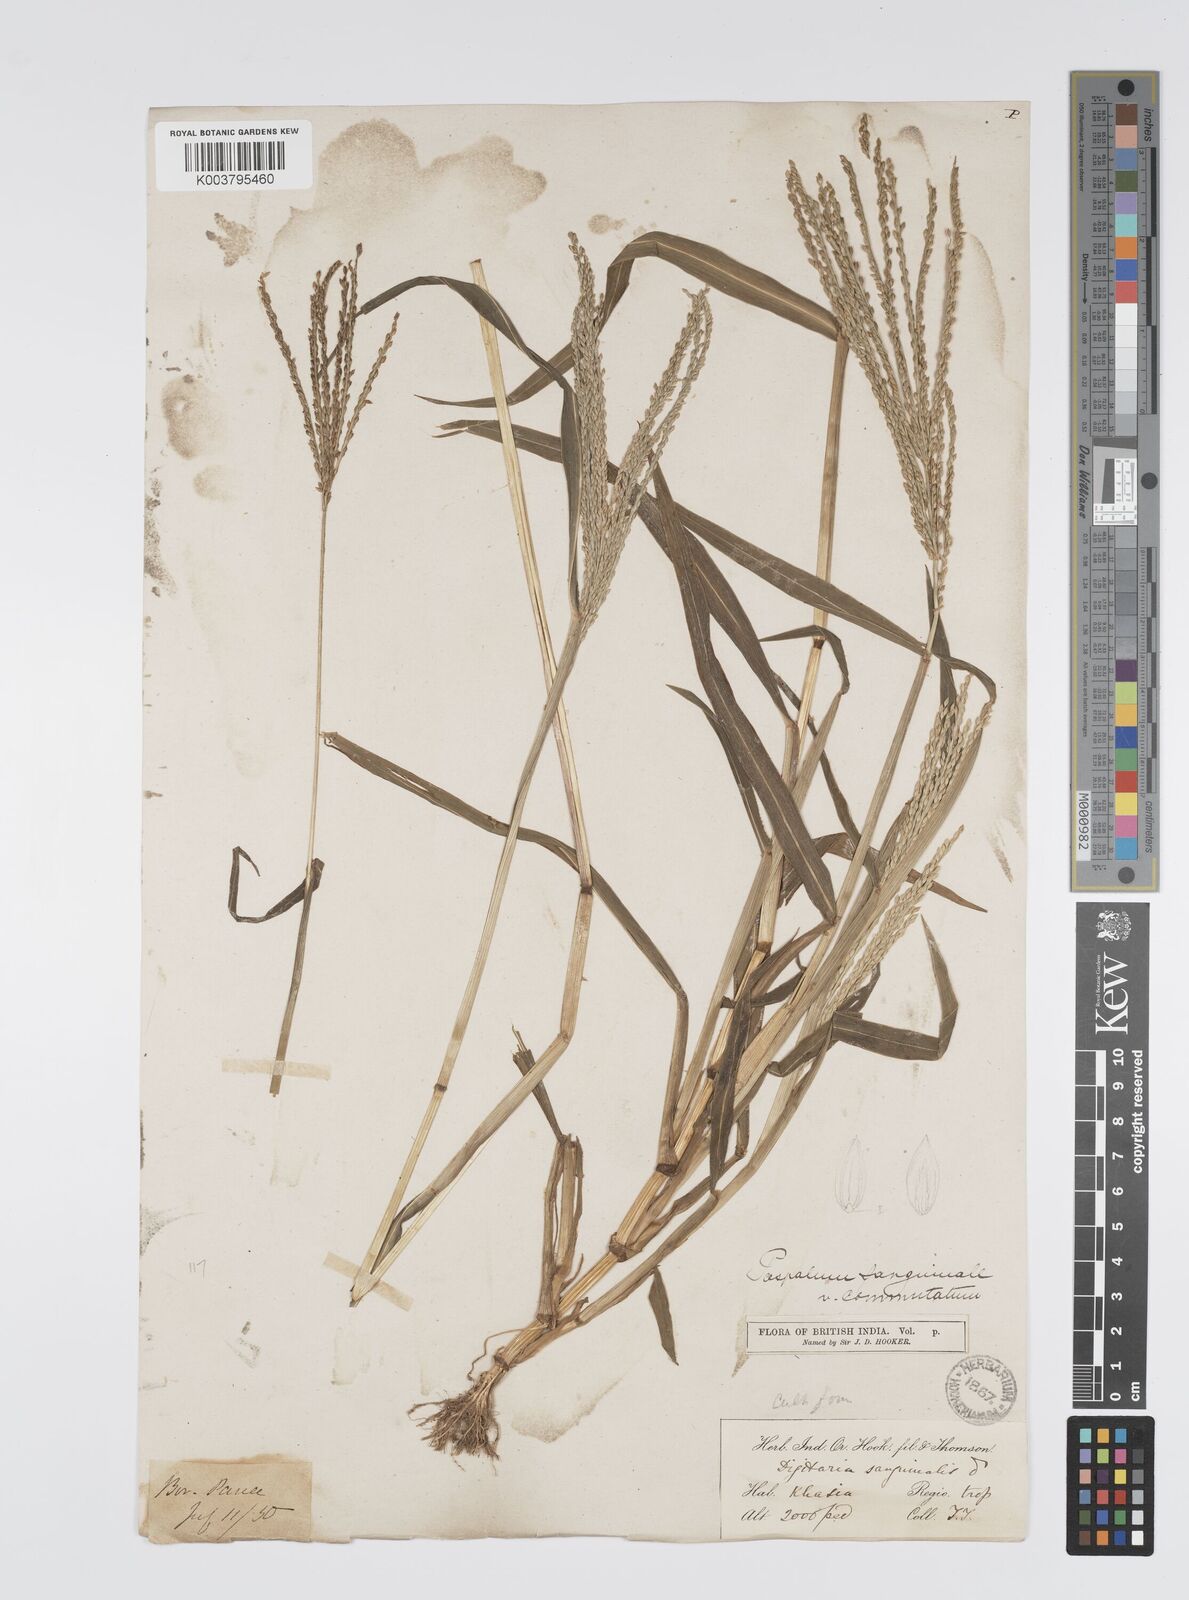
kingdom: Plantae
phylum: Tracheophyta
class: Liliopsida
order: Poales
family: Poaceae
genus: Digitaria
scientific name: Digitaria cruciata
